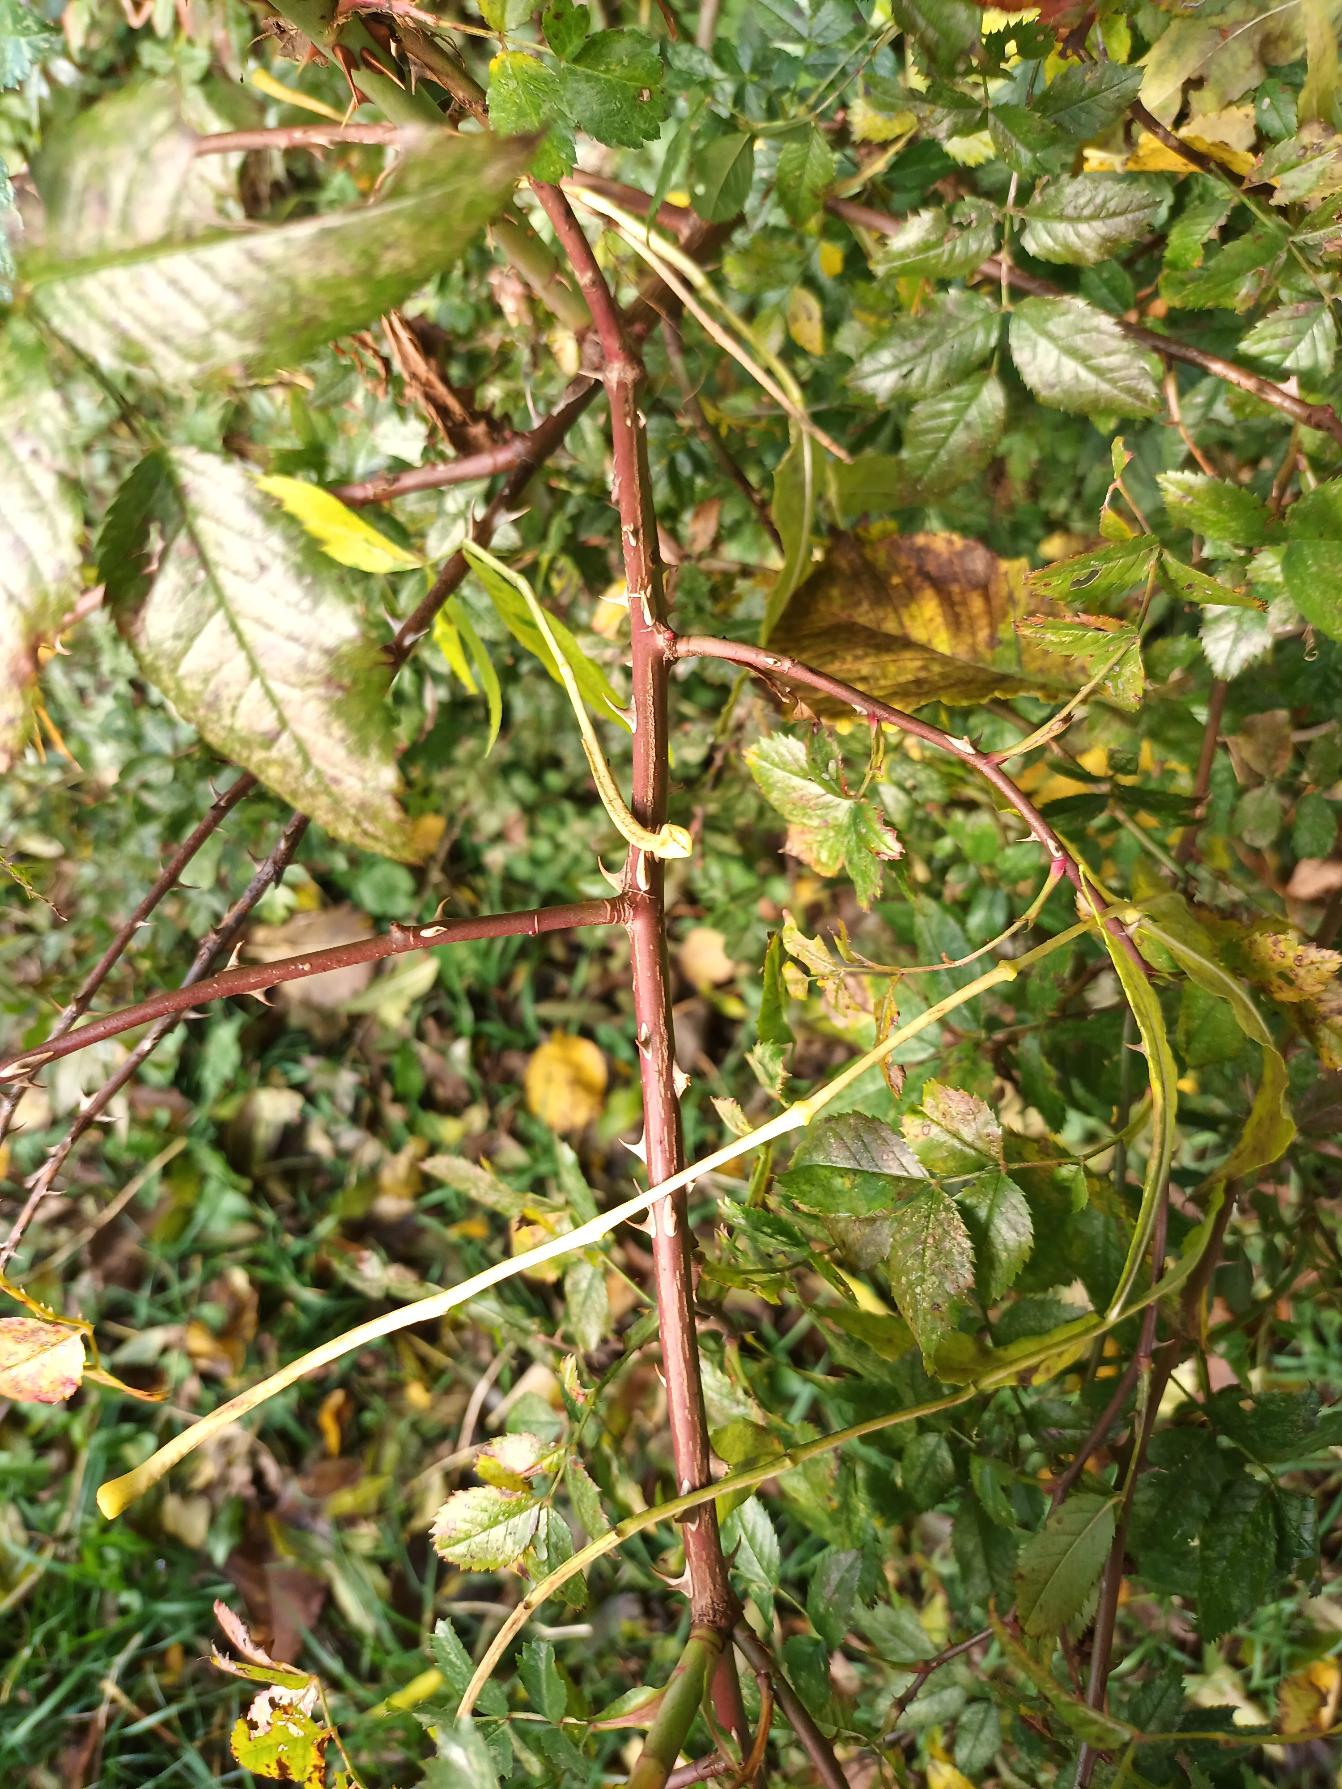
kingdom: Plantae
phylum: Tracheophyta
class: Magnoliopsida
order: Rosales
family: Rosaceae
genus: Rosa
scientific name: Rosa canina
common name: Glat hunde-rose
